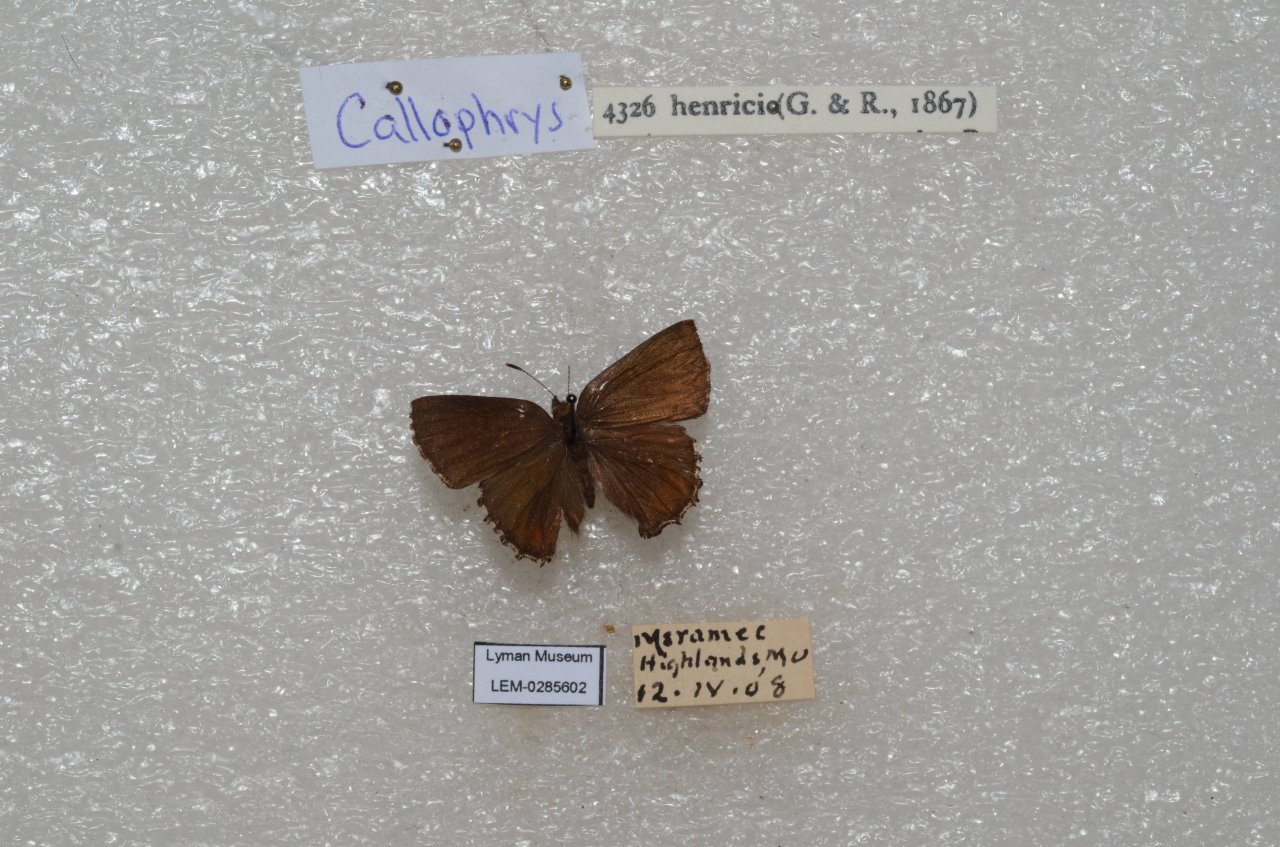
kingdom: Animalia
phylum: Arthropoda
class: Insecta
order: Lepidoptera
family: Lycaenidae
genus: Incisalia
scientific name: Incisalia henrici
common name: Henry's Elfin
